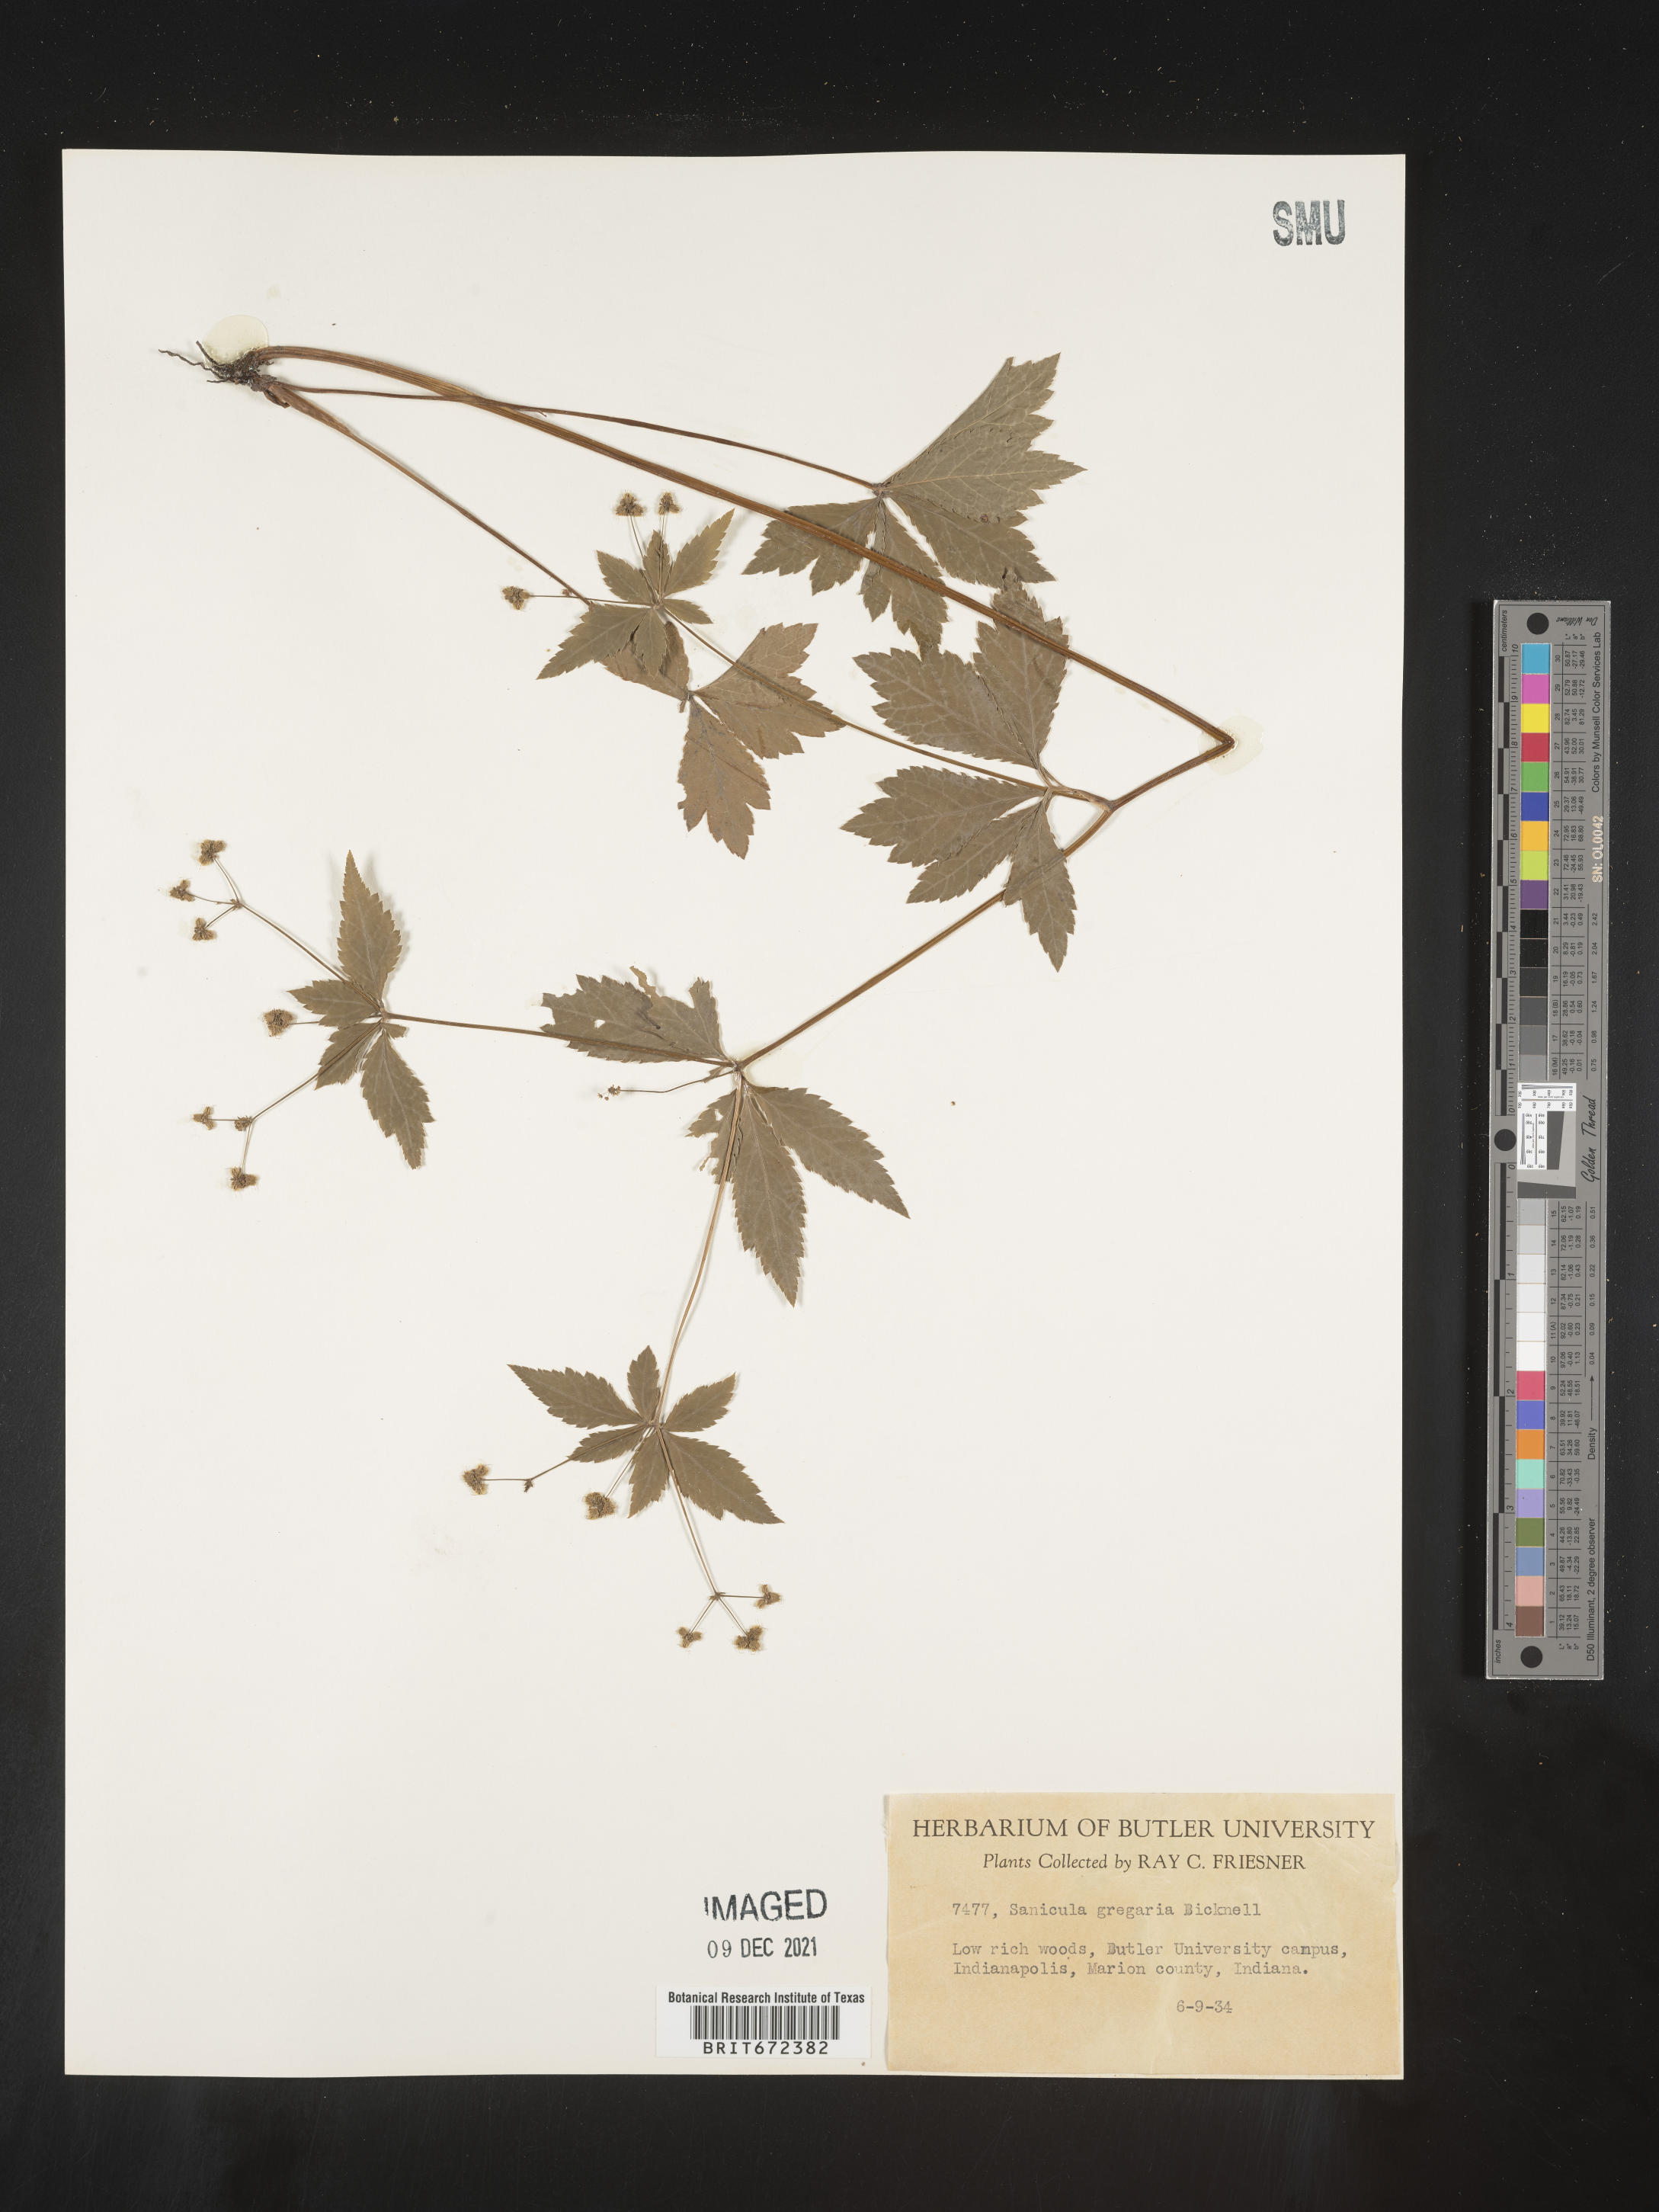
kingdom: Plantae
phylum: Tracheophyta
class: Magnoliopsida
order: Apiales
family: Apiaceae
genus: Sanicula
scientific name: Sanicula odorata
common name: Cluster sanicle
